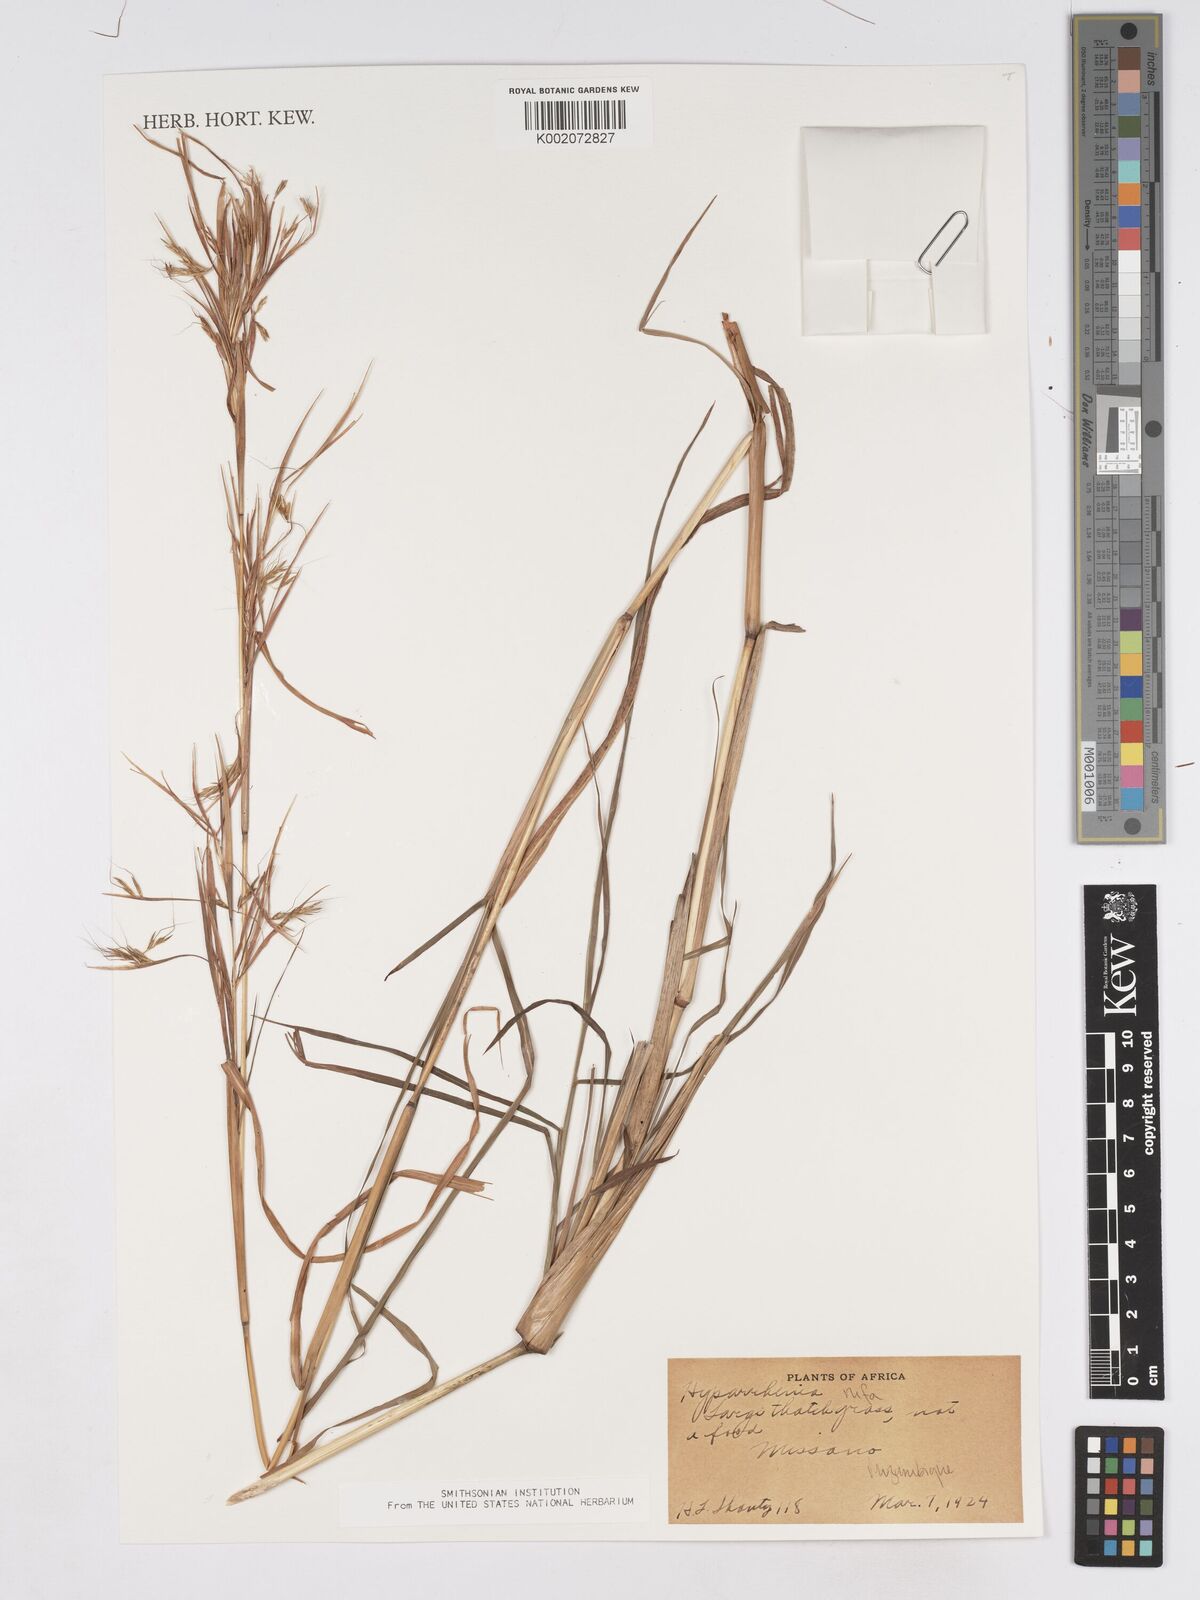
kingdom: Plantae
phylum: Tracheophyta
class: Liliopsida
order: Poales
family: Poaceae
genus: Hyparrhenia
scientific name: Hyparrhenia rufa
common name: Jaraguagrass
